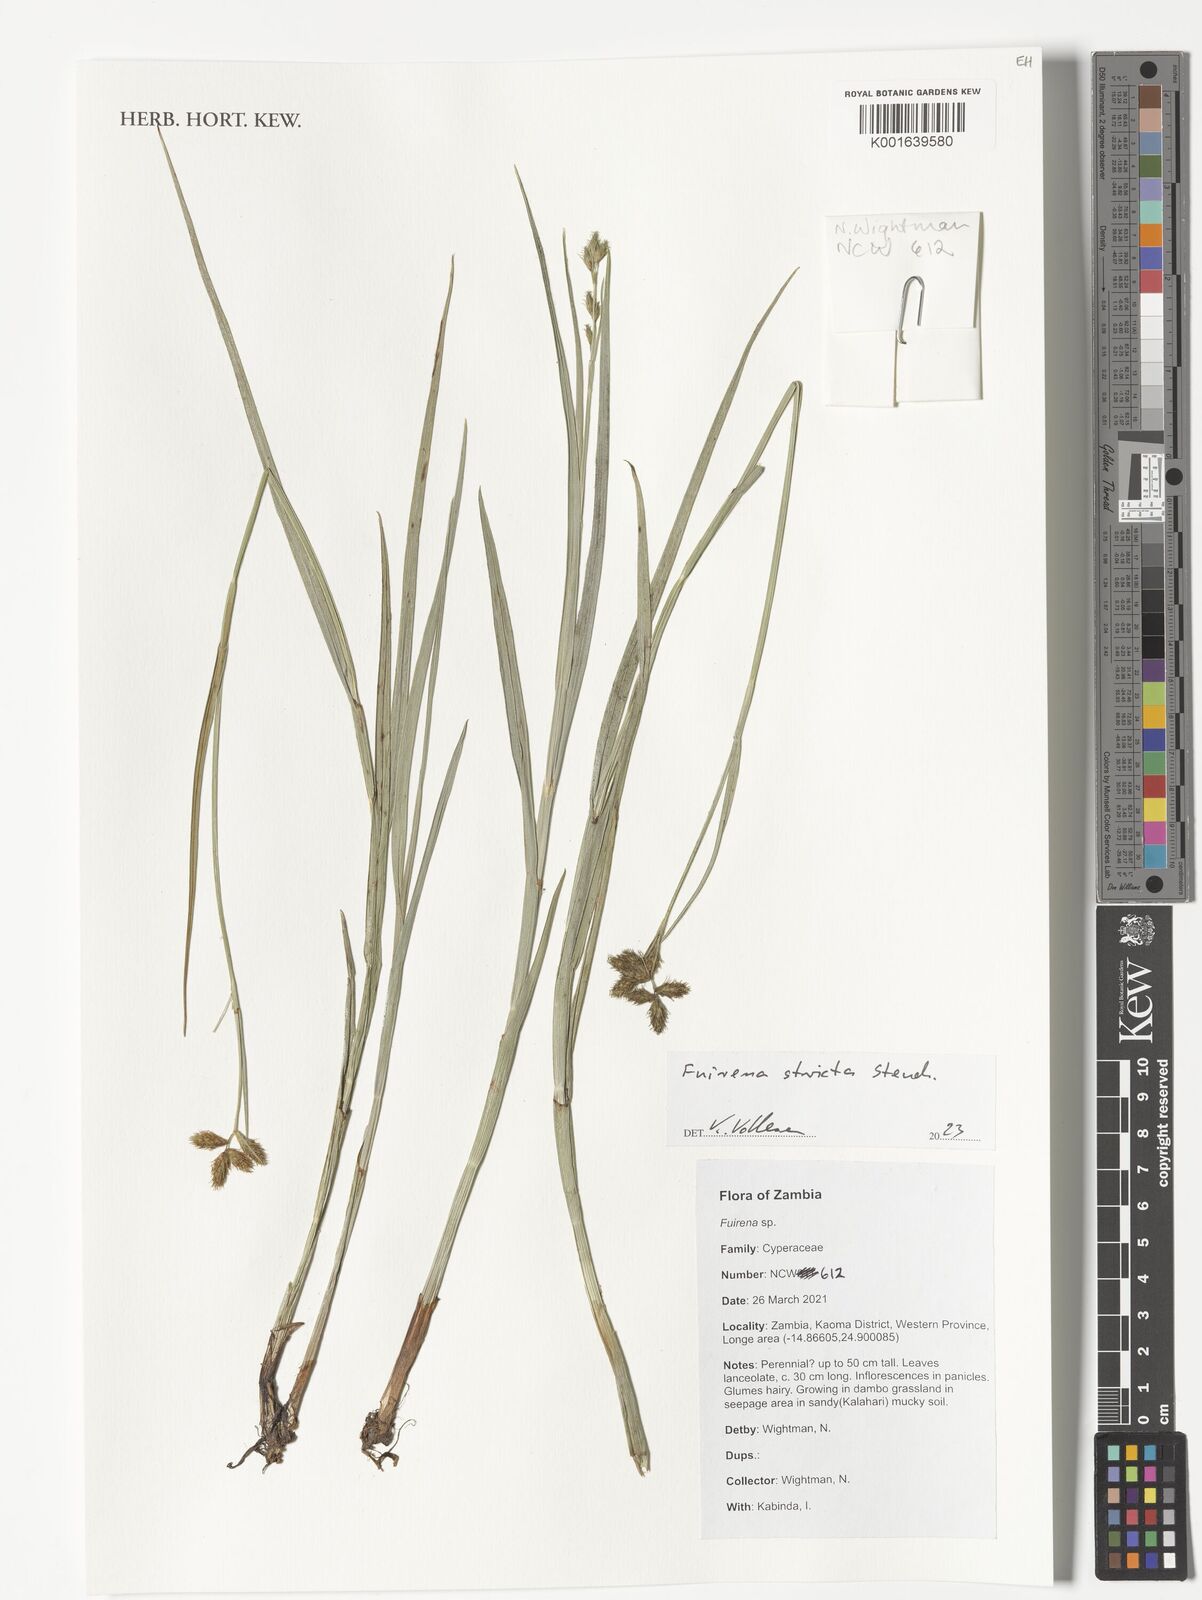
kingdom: Plantae
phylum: Tracheophyta
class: Liliopsida
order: Poales
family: Cyperaceae
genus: Fuirena
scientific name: Fuirena stricta
